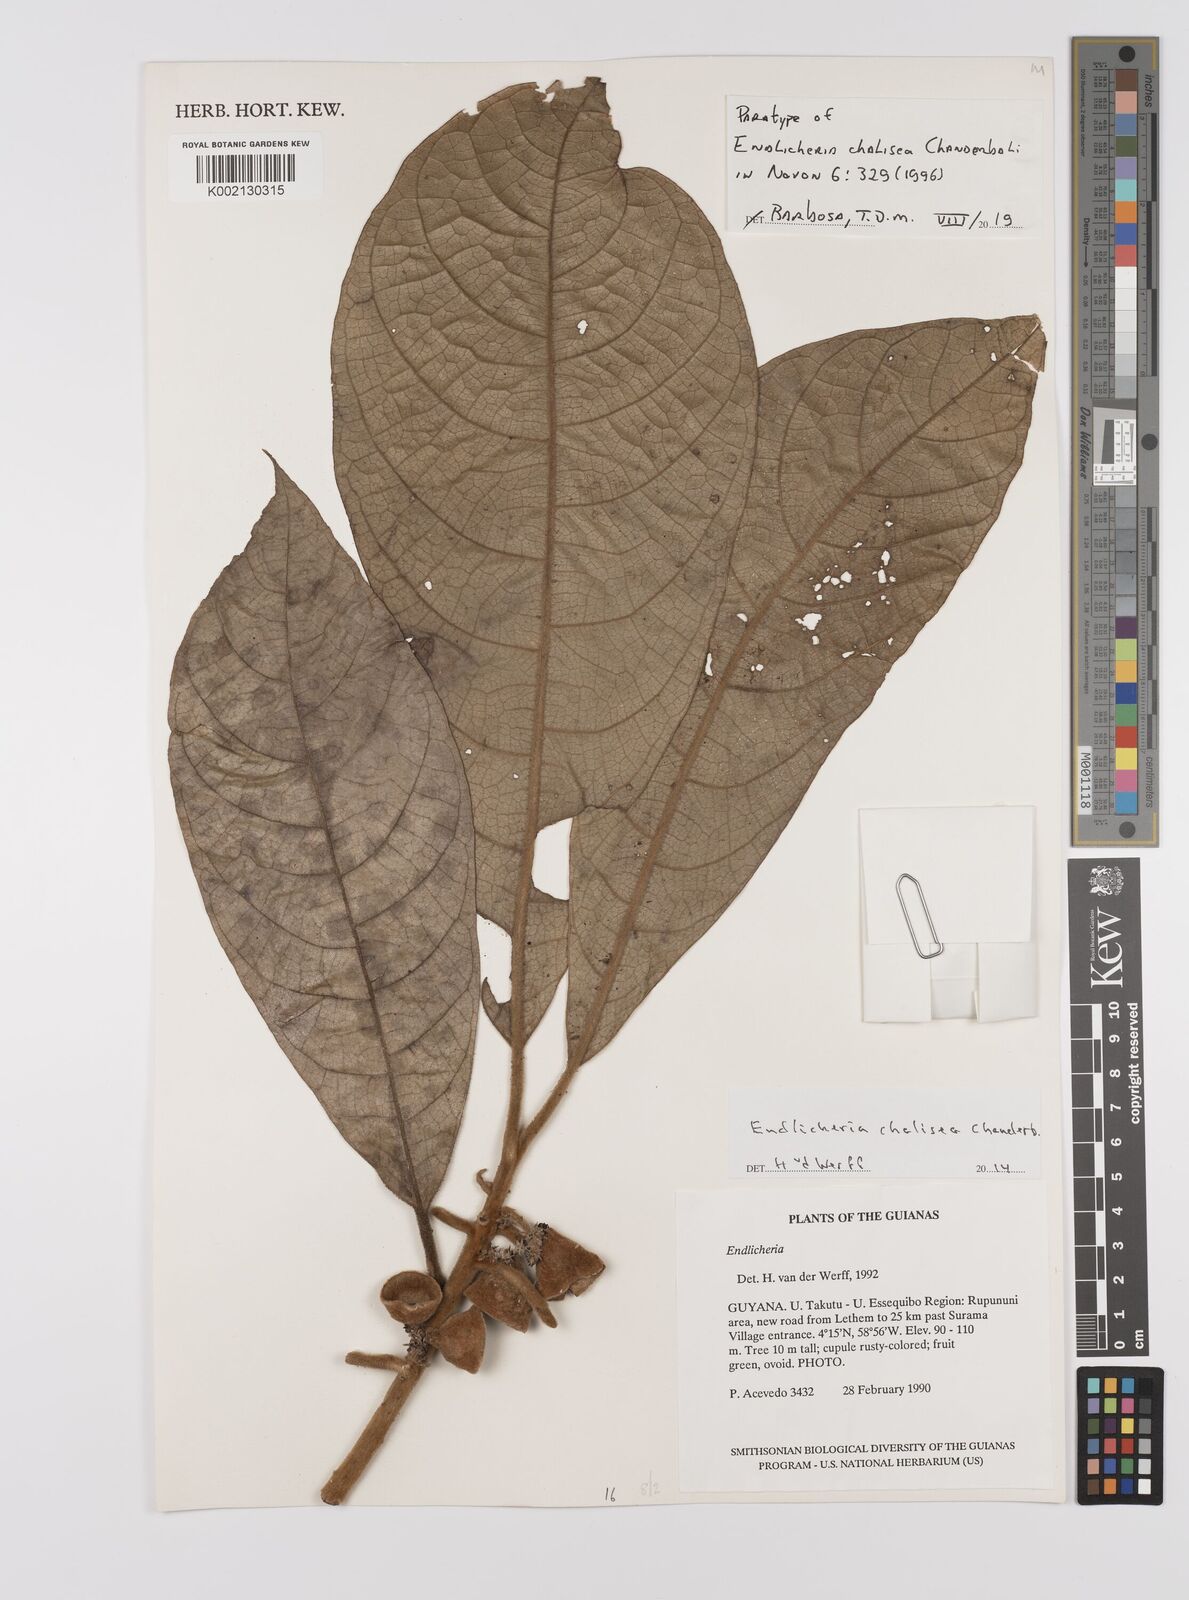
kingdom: Plantae
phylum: Tracheophyta
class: Magnoliopsida
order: Laurales
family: Lauraceae
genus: Endlicheria
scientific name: Endlicheria chalisea
